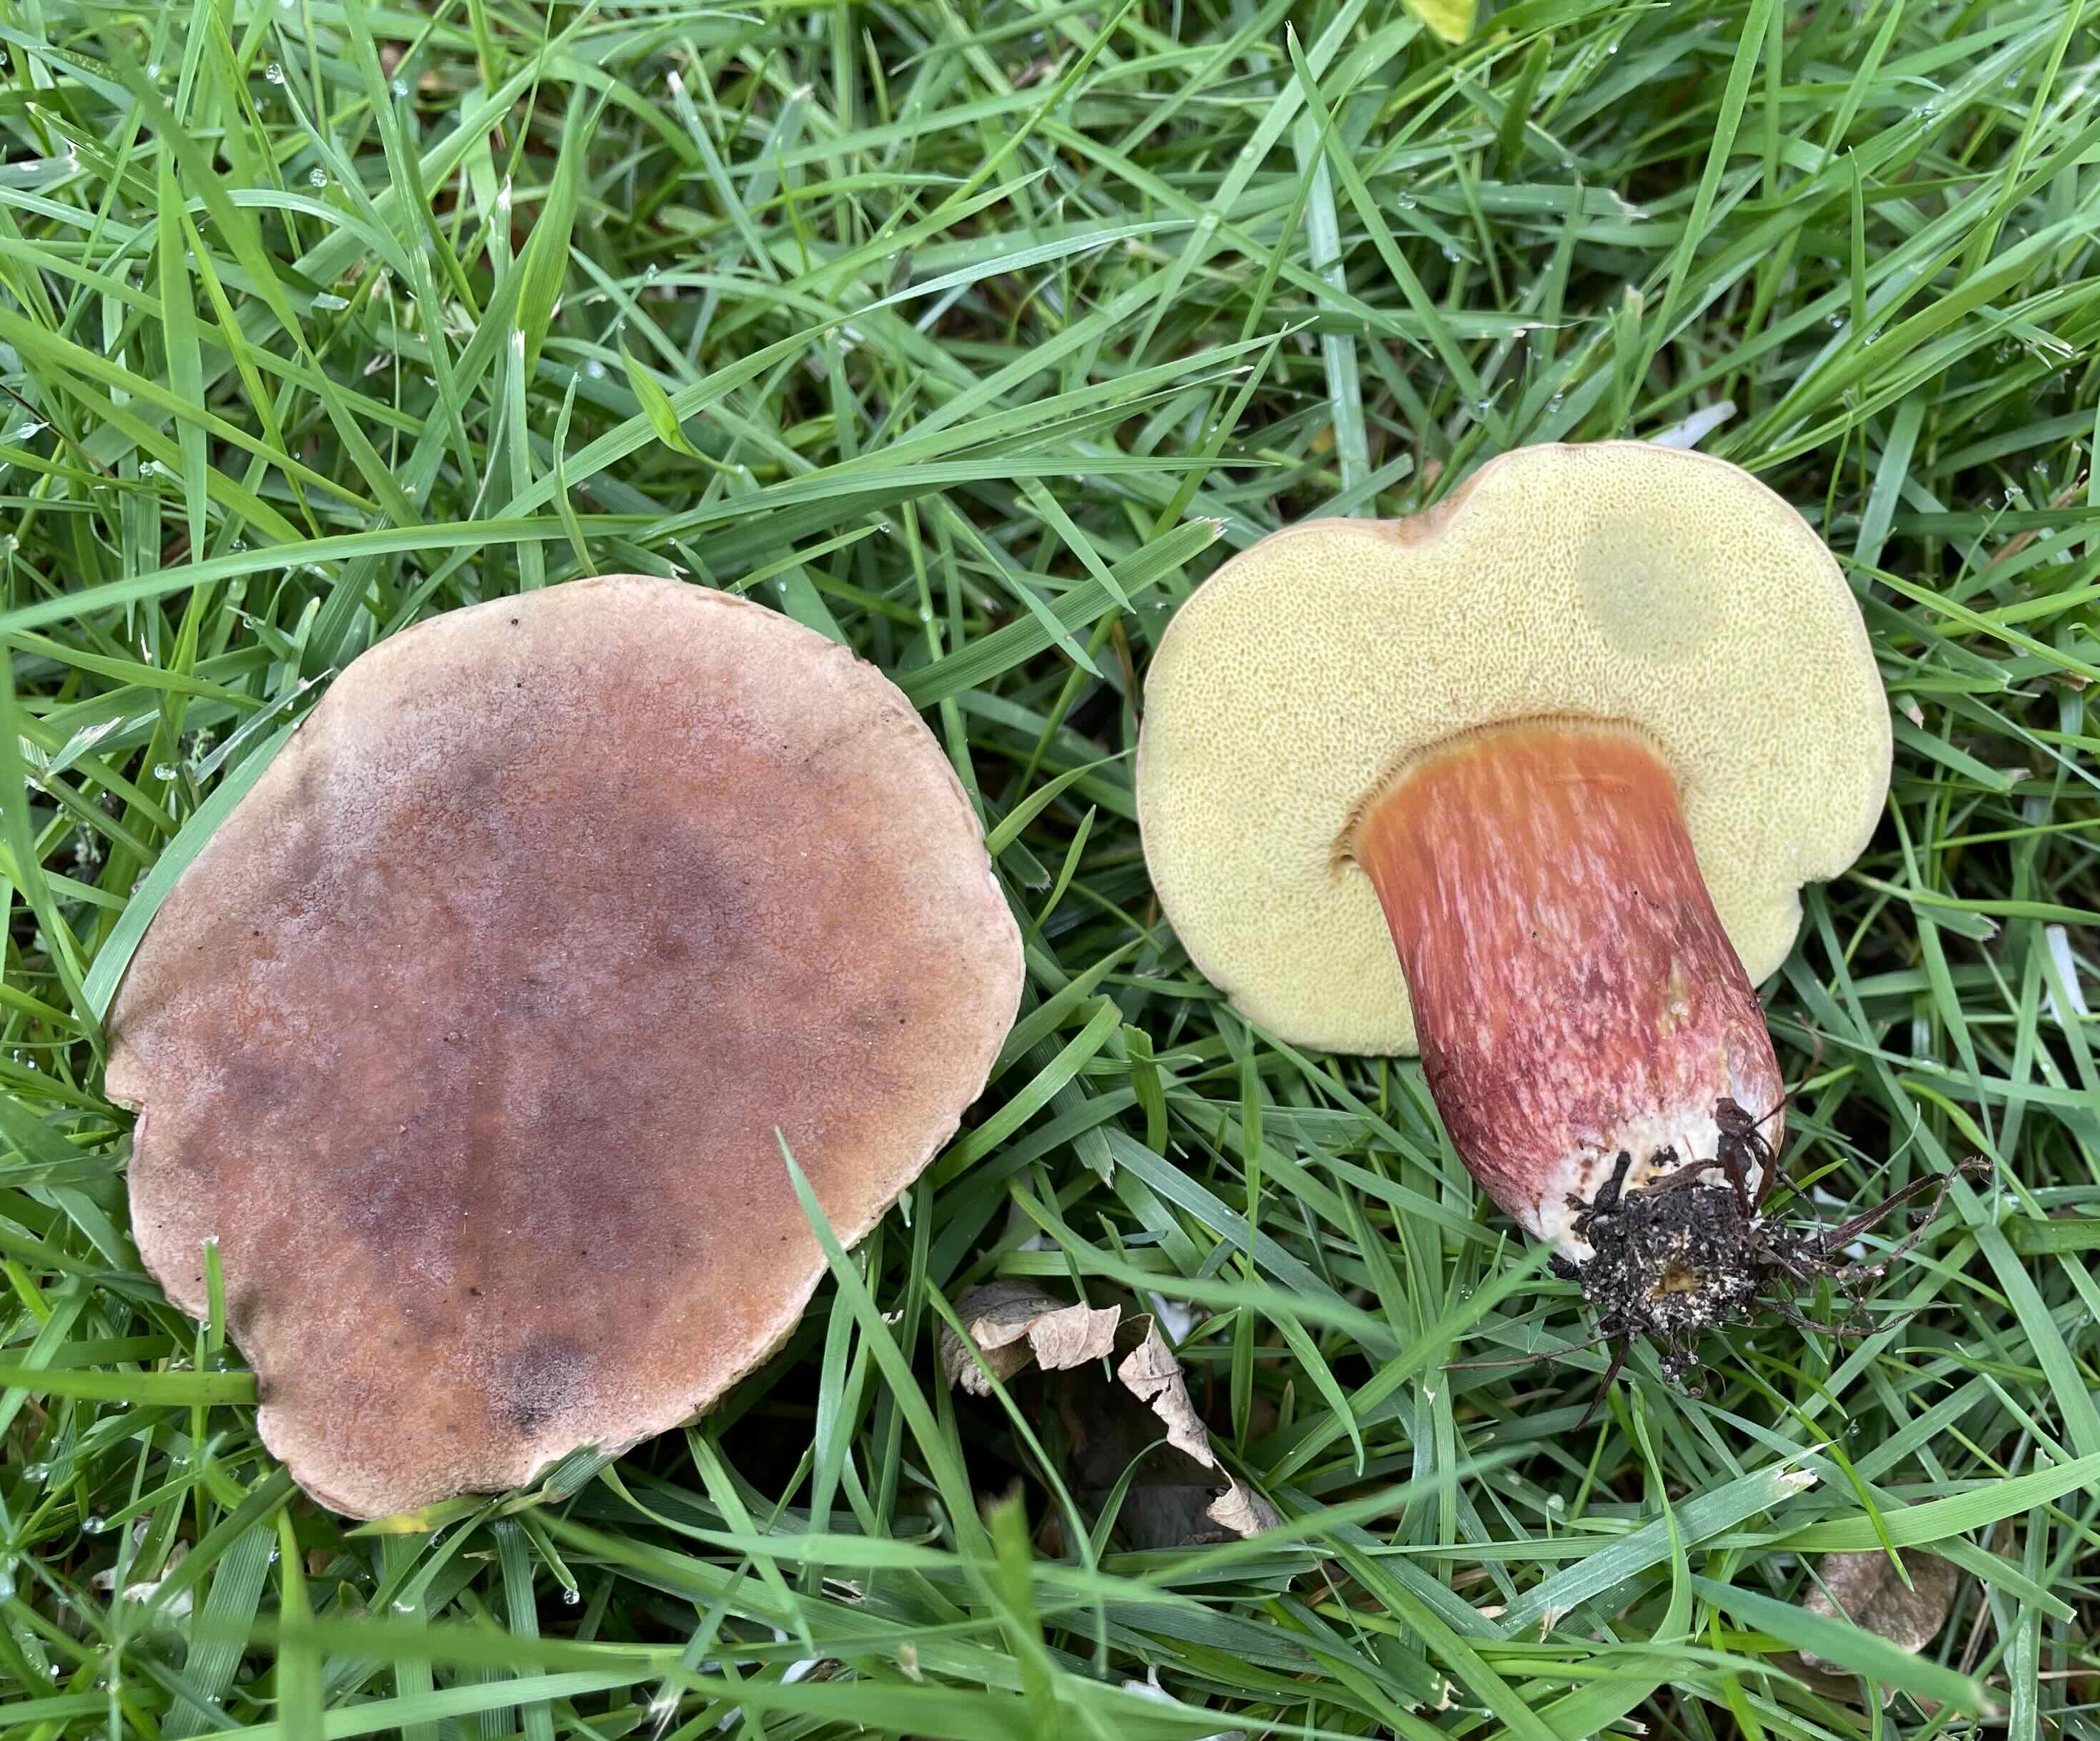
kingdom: Fungi
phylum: Basidiomycota
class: Agaricomycetes
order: Boletales
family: Boletaceae
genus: Hortiboletus
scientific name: Hortiboletus bubalinus
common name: aurora-rørhat
